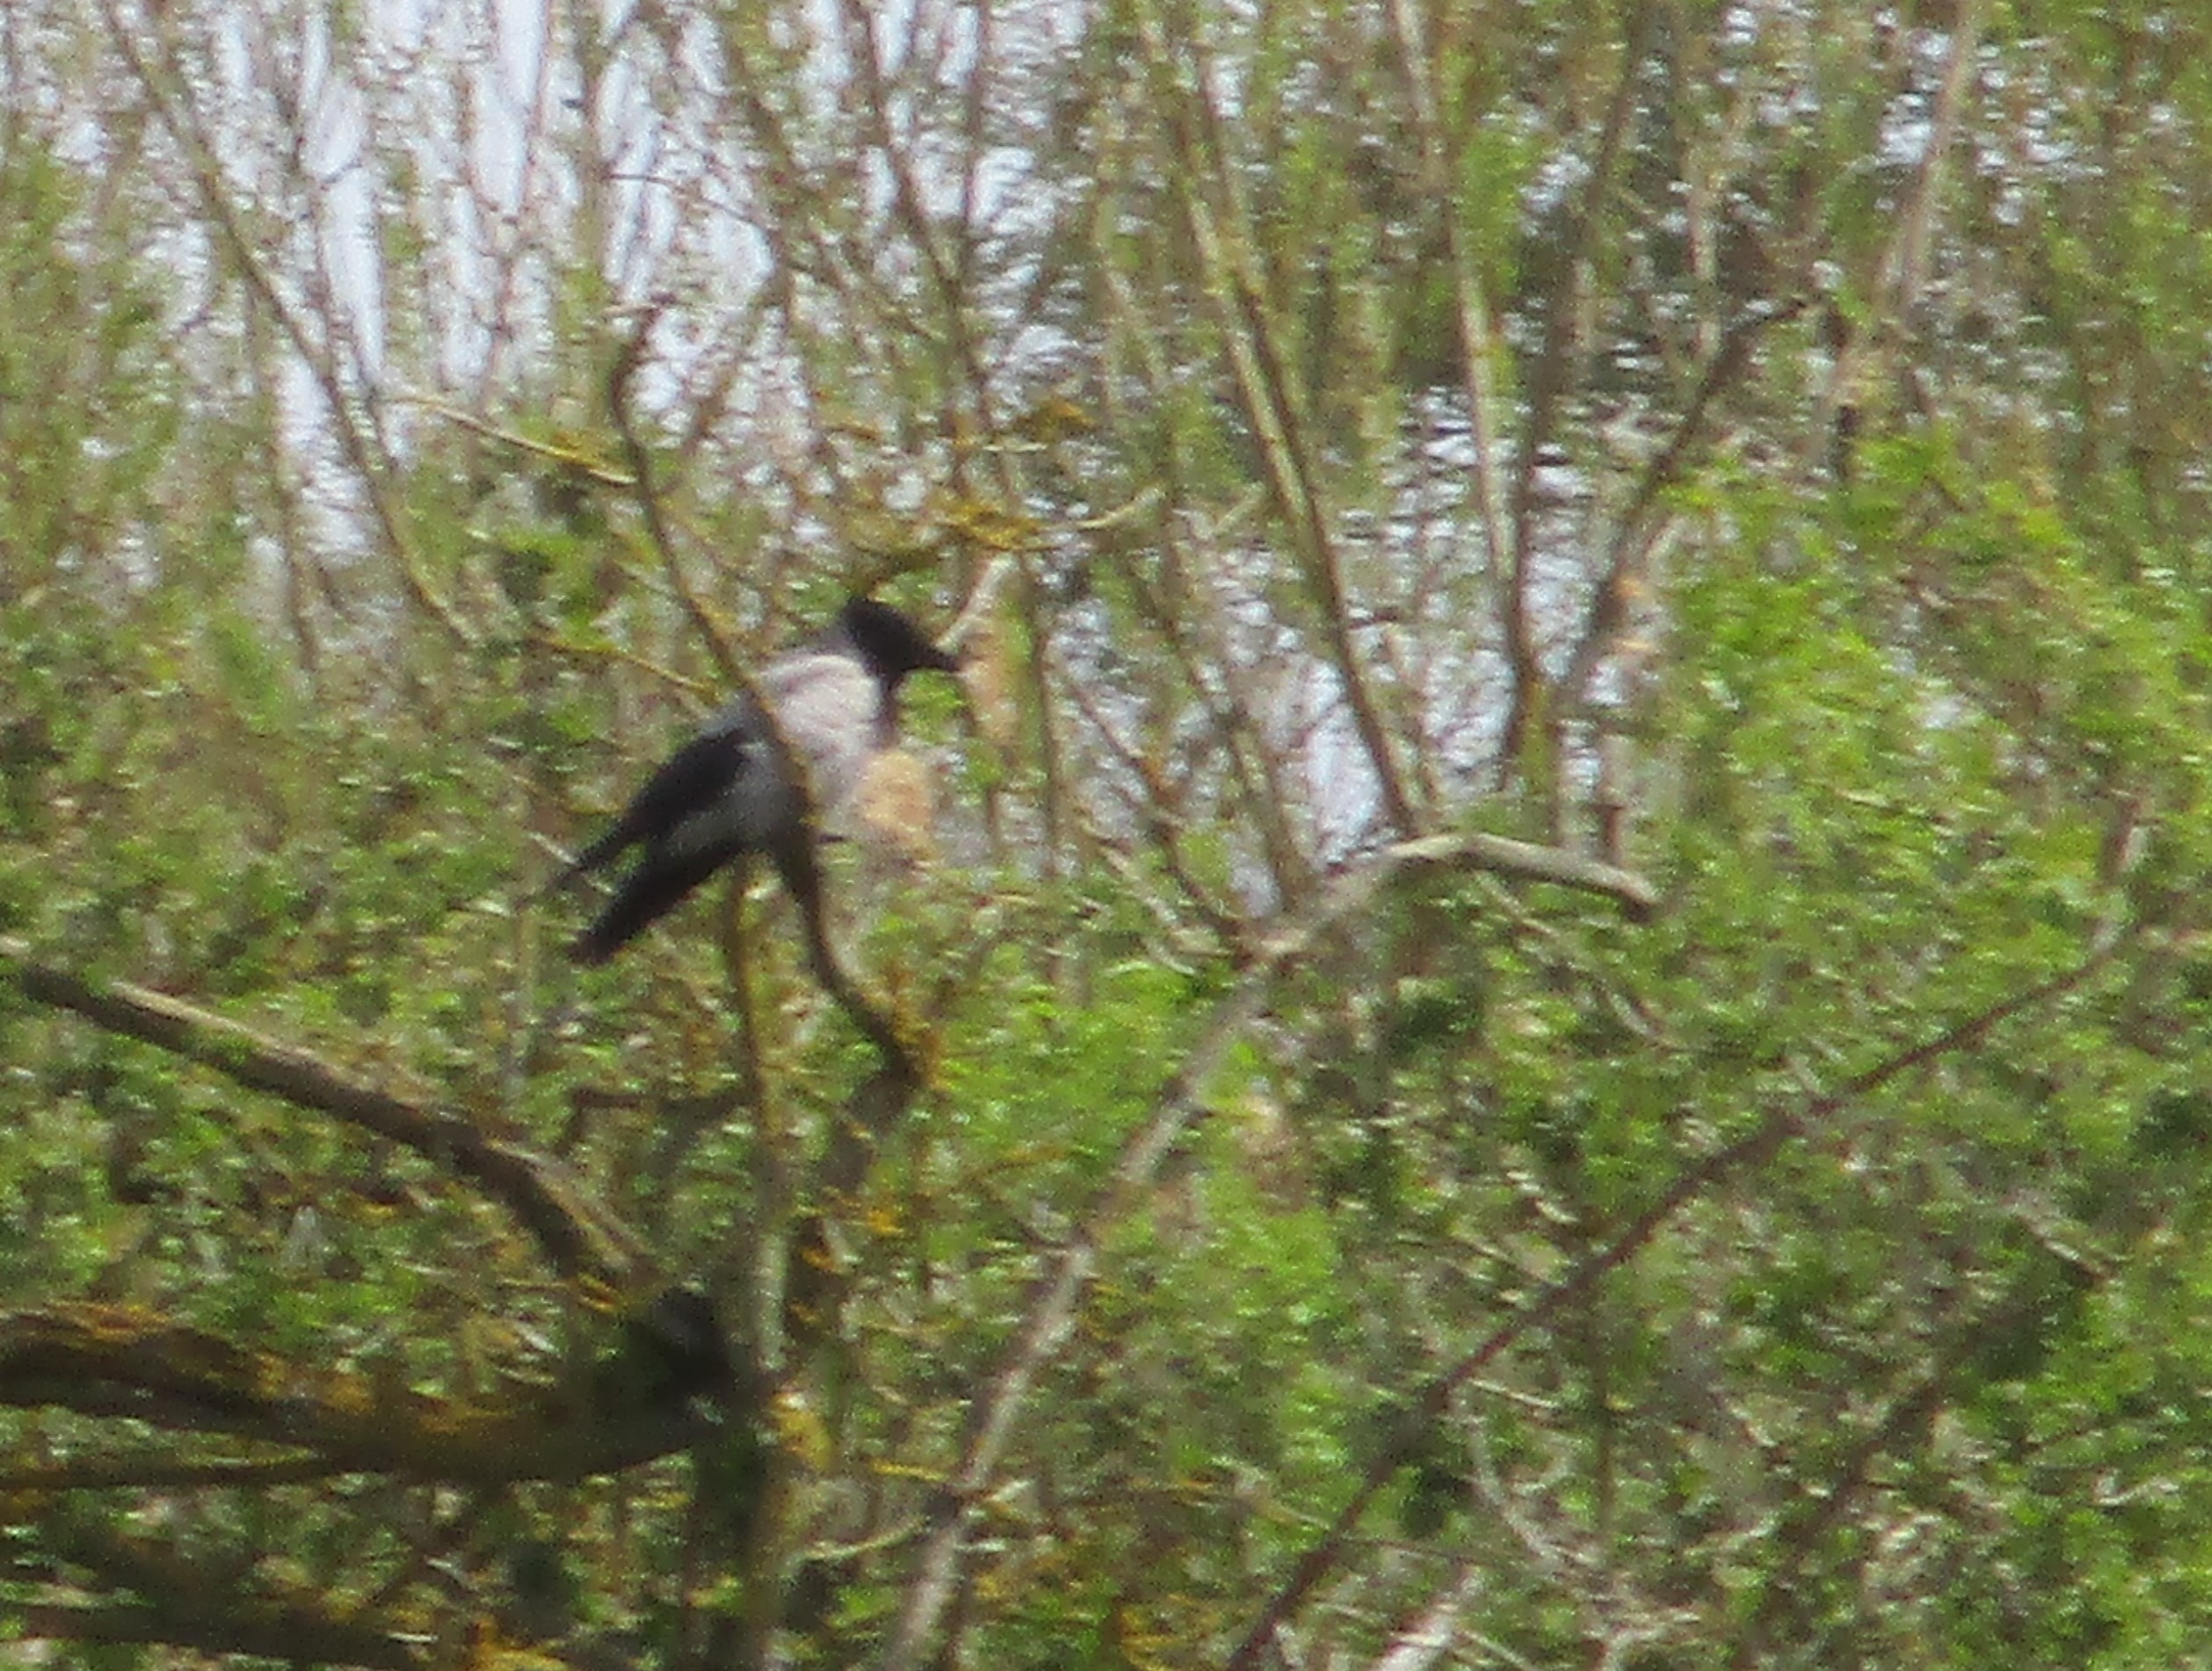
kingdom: Animalia
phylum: Chordata
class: Aves
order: Passeriformes
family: Corvidae
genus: Corvus
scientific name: Corvus cornix
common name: Gråkrage
